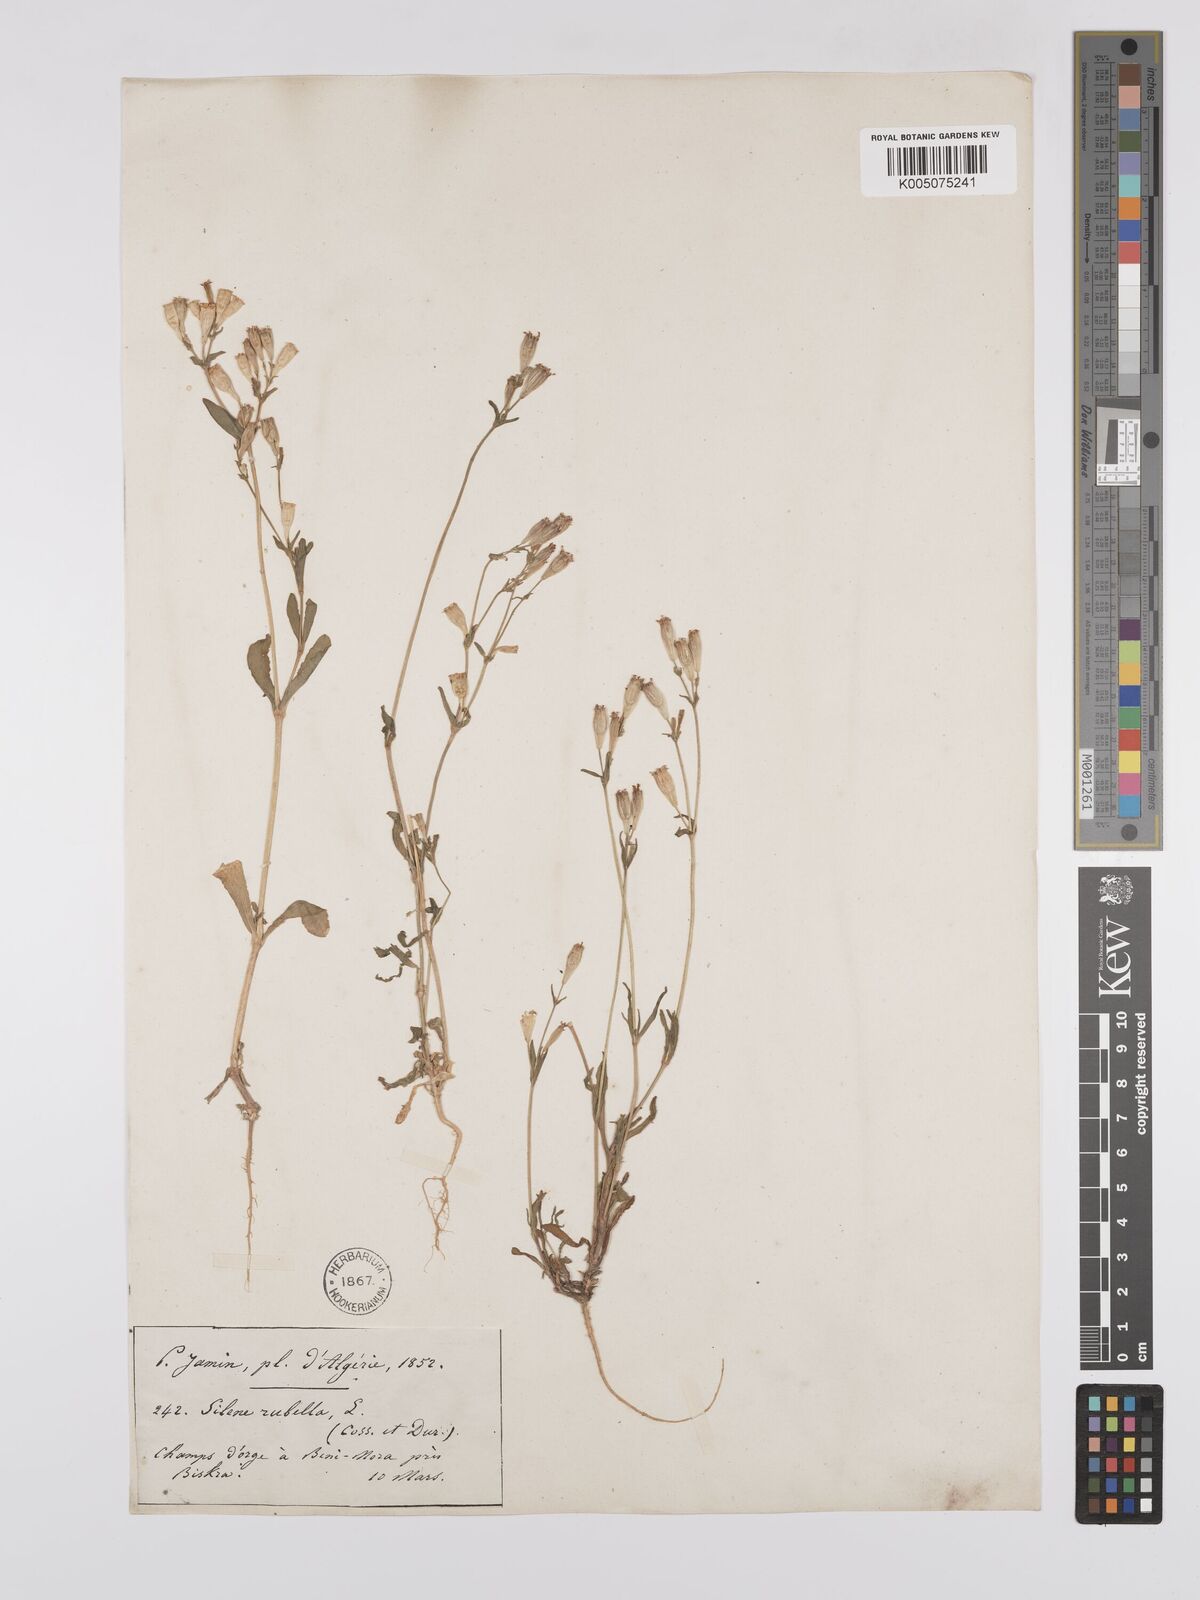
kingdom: Plantae
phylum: Tracheophyta
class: Magnoliopsida
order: Caryophyllales
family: Caryophyllaceae
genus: Silene
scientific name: Silene rubella
